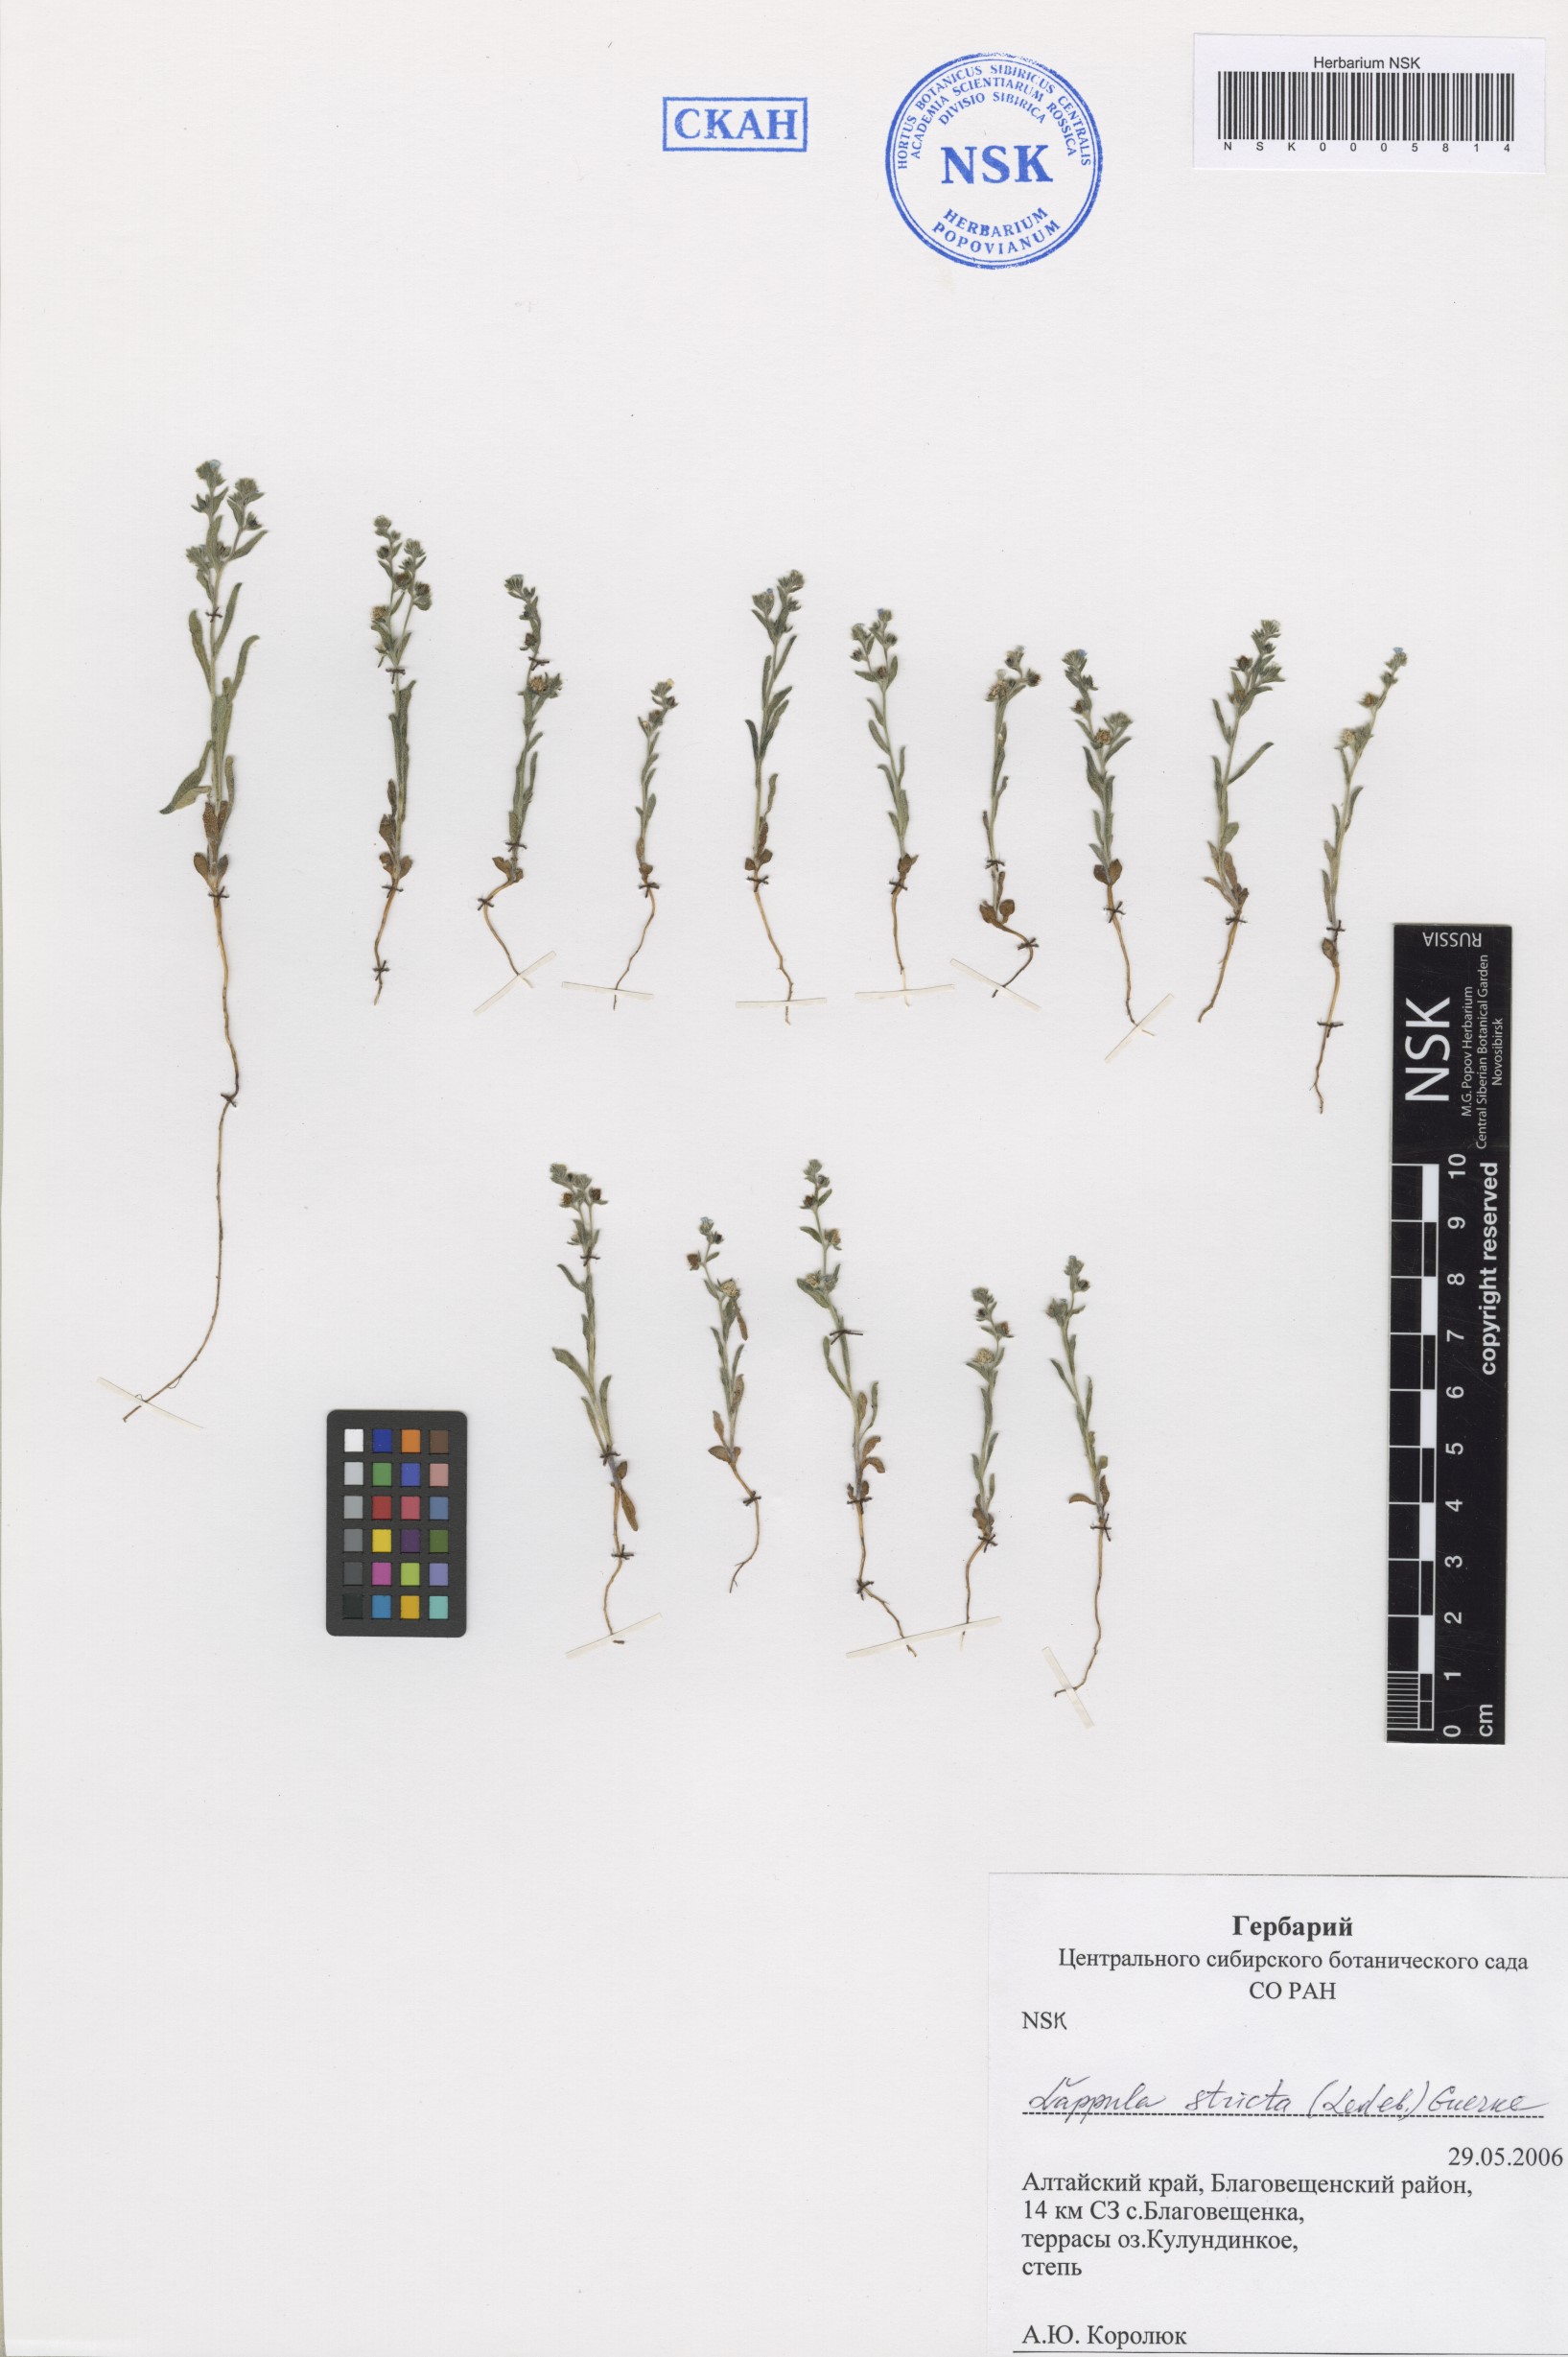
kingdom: Plantae
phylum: Tracheophyta
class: Magnoliopsida
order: Boraginales
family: Boraginaceae
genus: Lappula
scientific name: Lappula stricta
